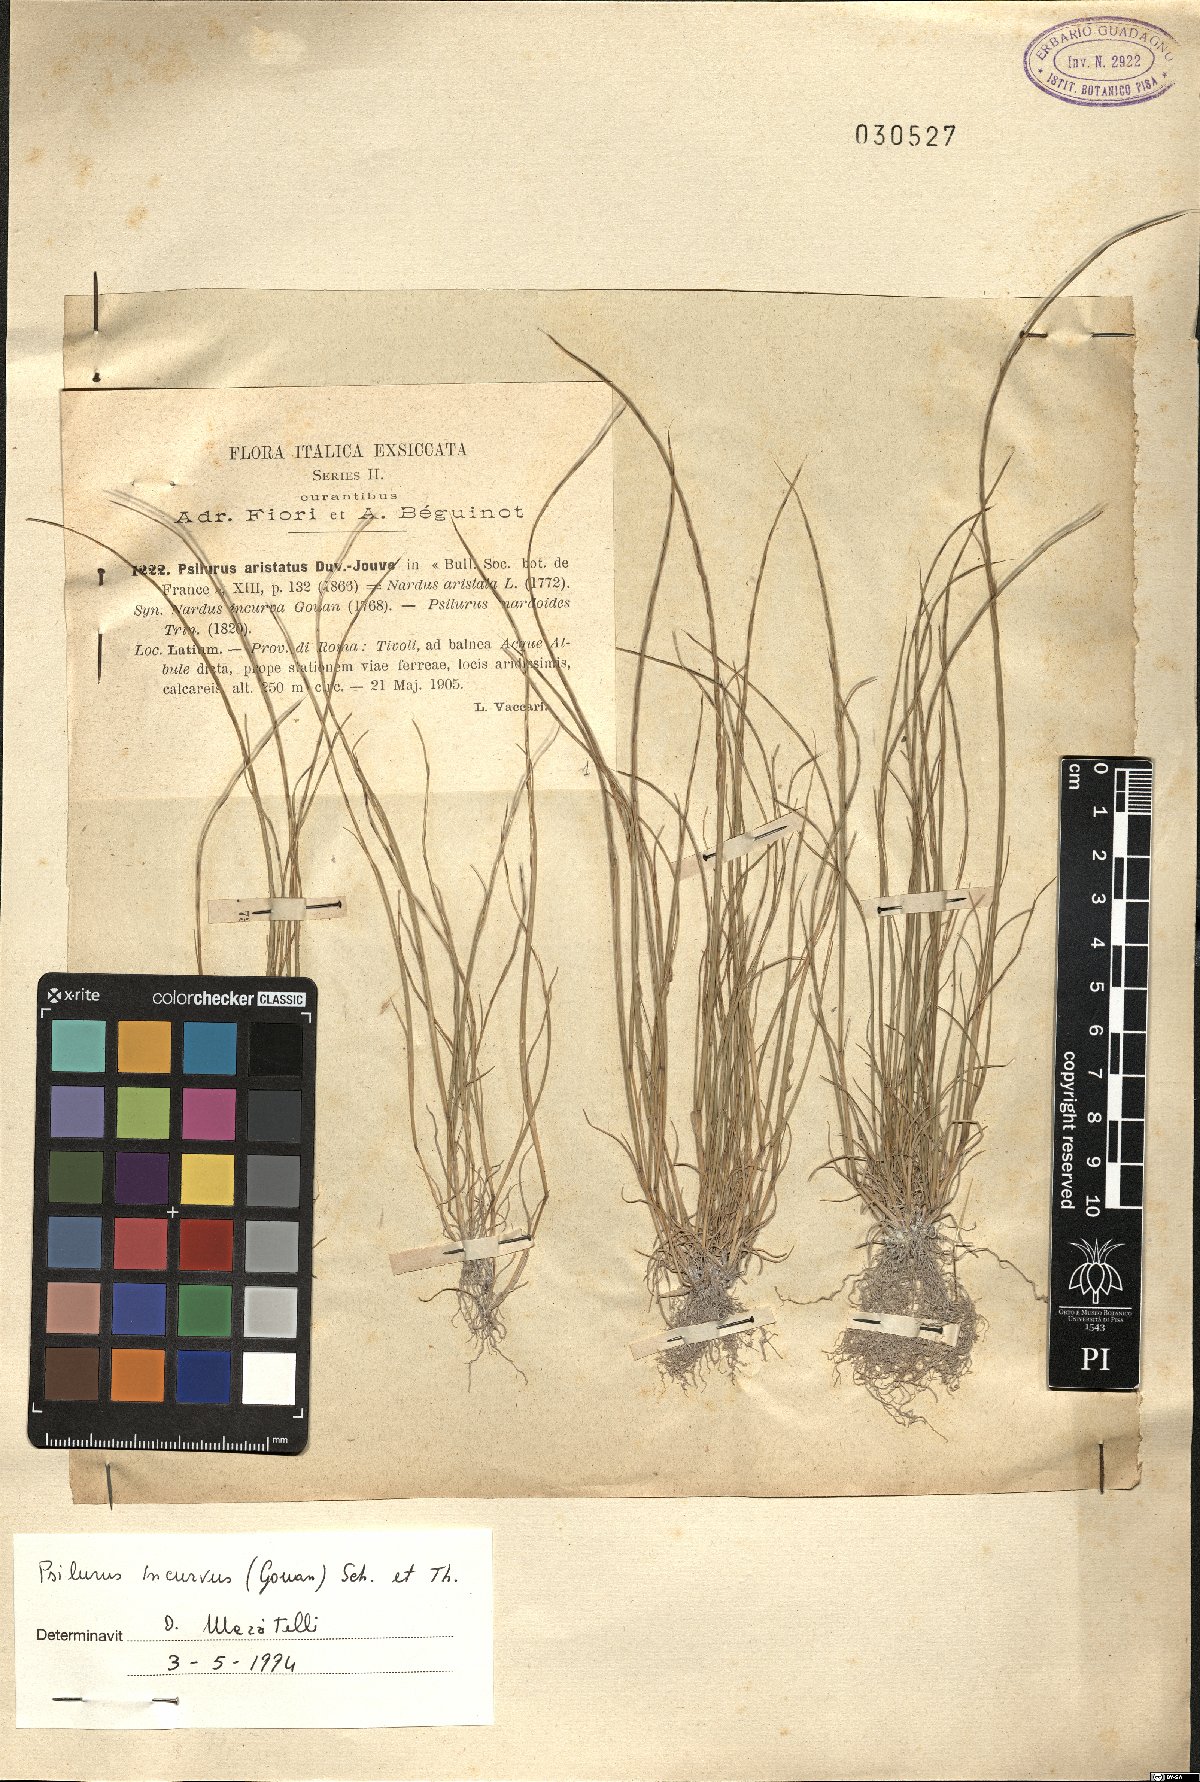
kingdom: Plantae
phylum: Tracheophyta
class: Liliopsida
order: Poales
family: Poaceae
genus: Festuca
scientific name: Festuca incurva
